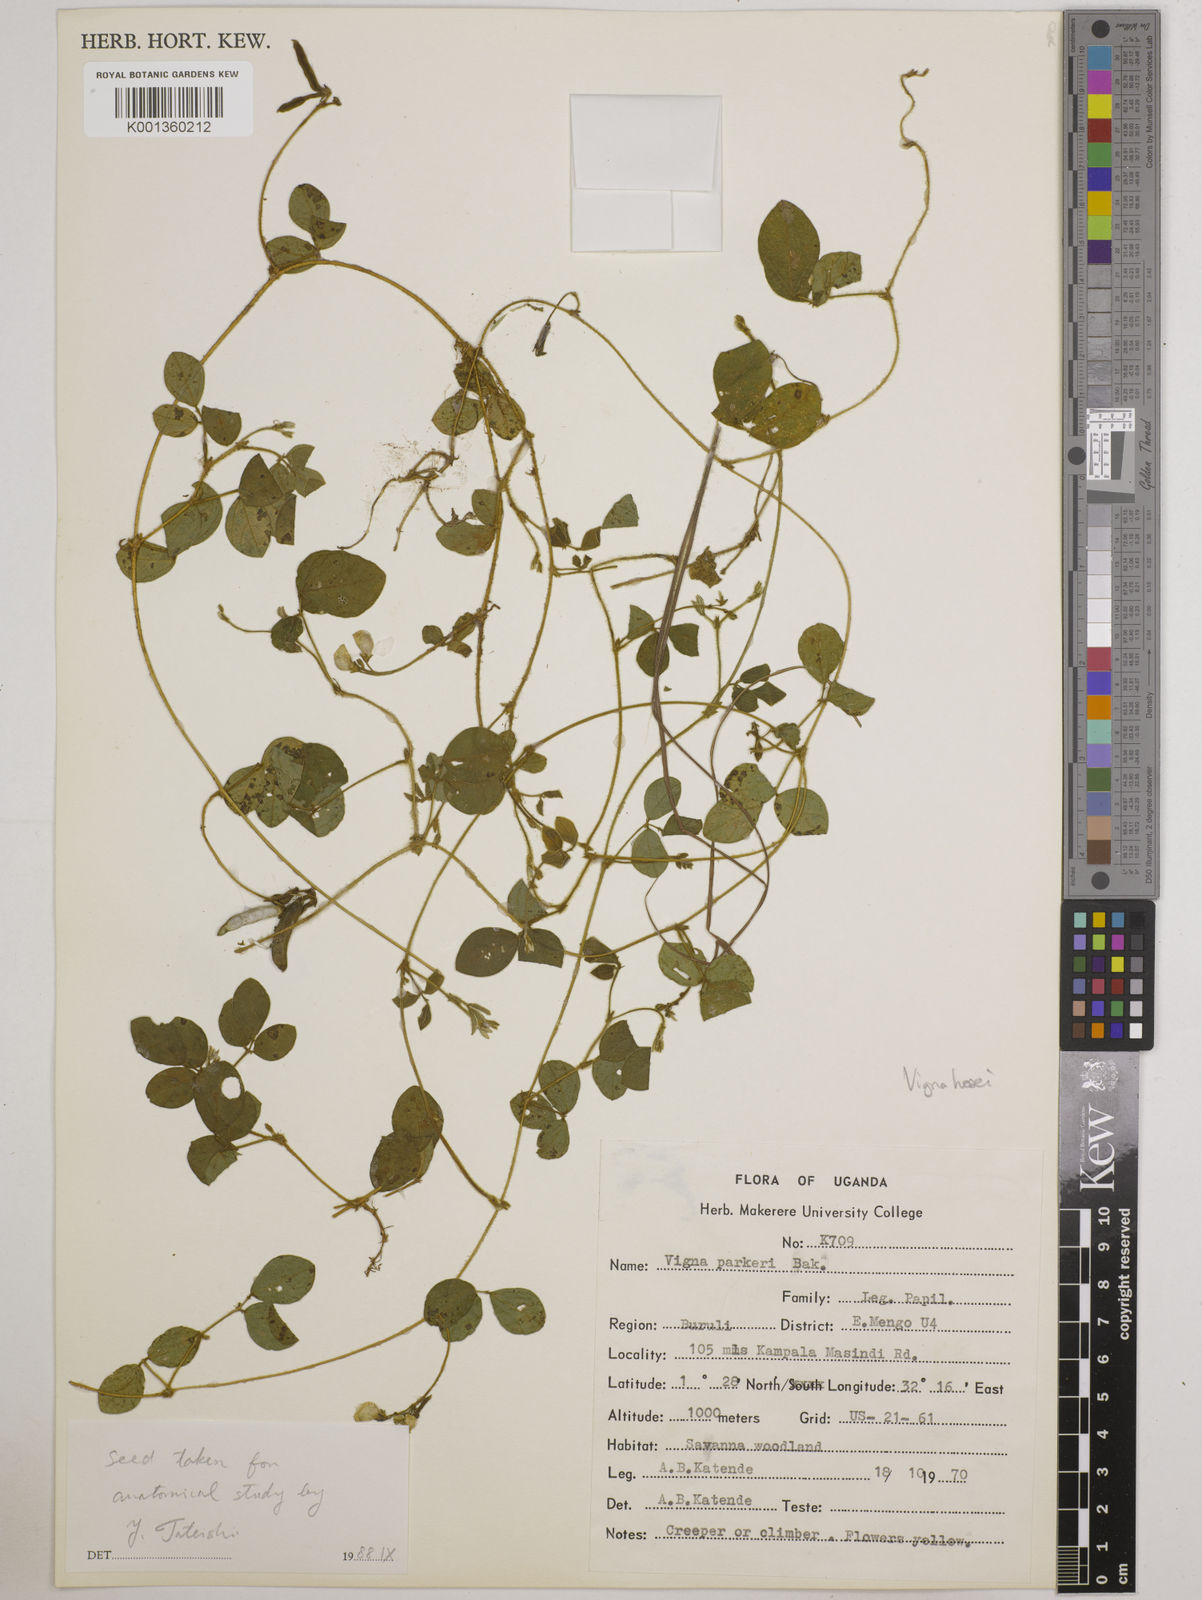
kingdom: Plantae
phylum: Tracheophyta
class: Magnoliopsida
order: Fabales
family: Fabaceae
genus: Vigna
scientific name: Vigna hosei
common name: Sarawak-bean
